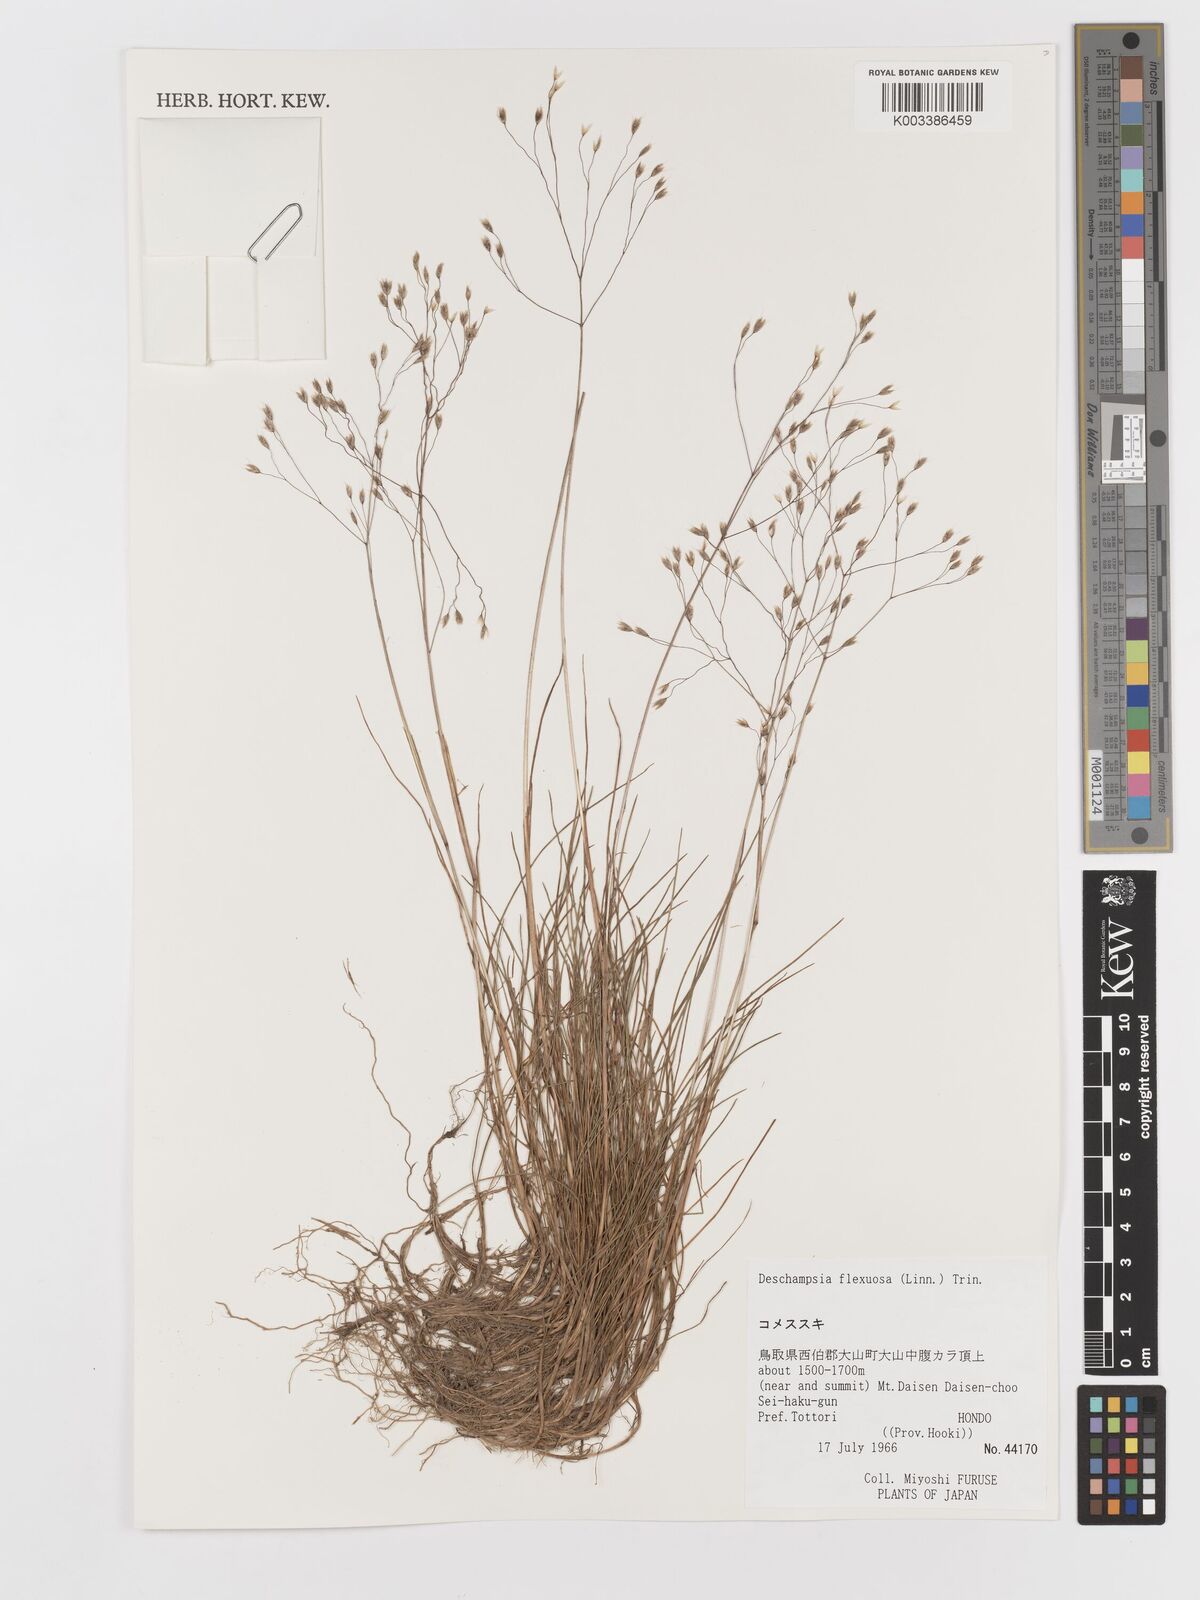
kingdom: Plantae
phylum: Tracheophyta
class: Liliopsida
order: Poales
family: Poaceae
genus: Avenella
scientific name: Avenella flexuosa
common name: Wavy hairgrass
